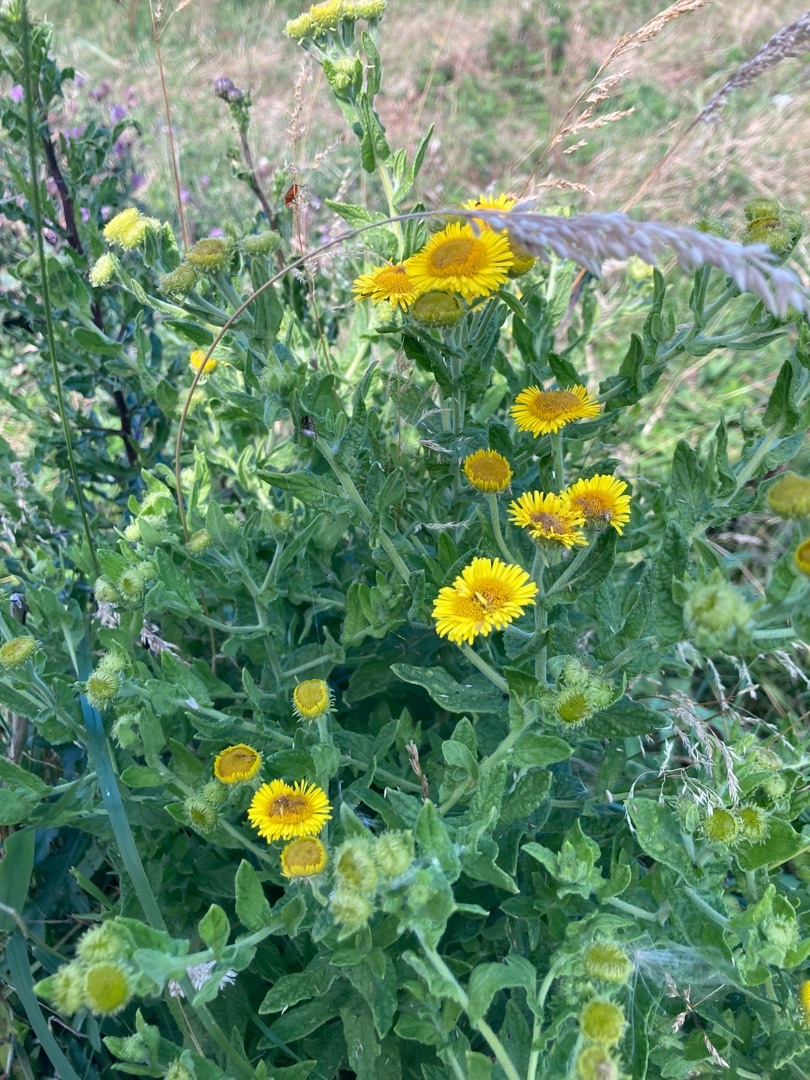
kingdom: Plantae
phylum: Tracheophyta
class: Magnoliopsida
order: Asterales
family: Asteraceae
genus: Pulicaria
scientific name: Pulicaria dysenterica
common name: Strand-loppeurt
